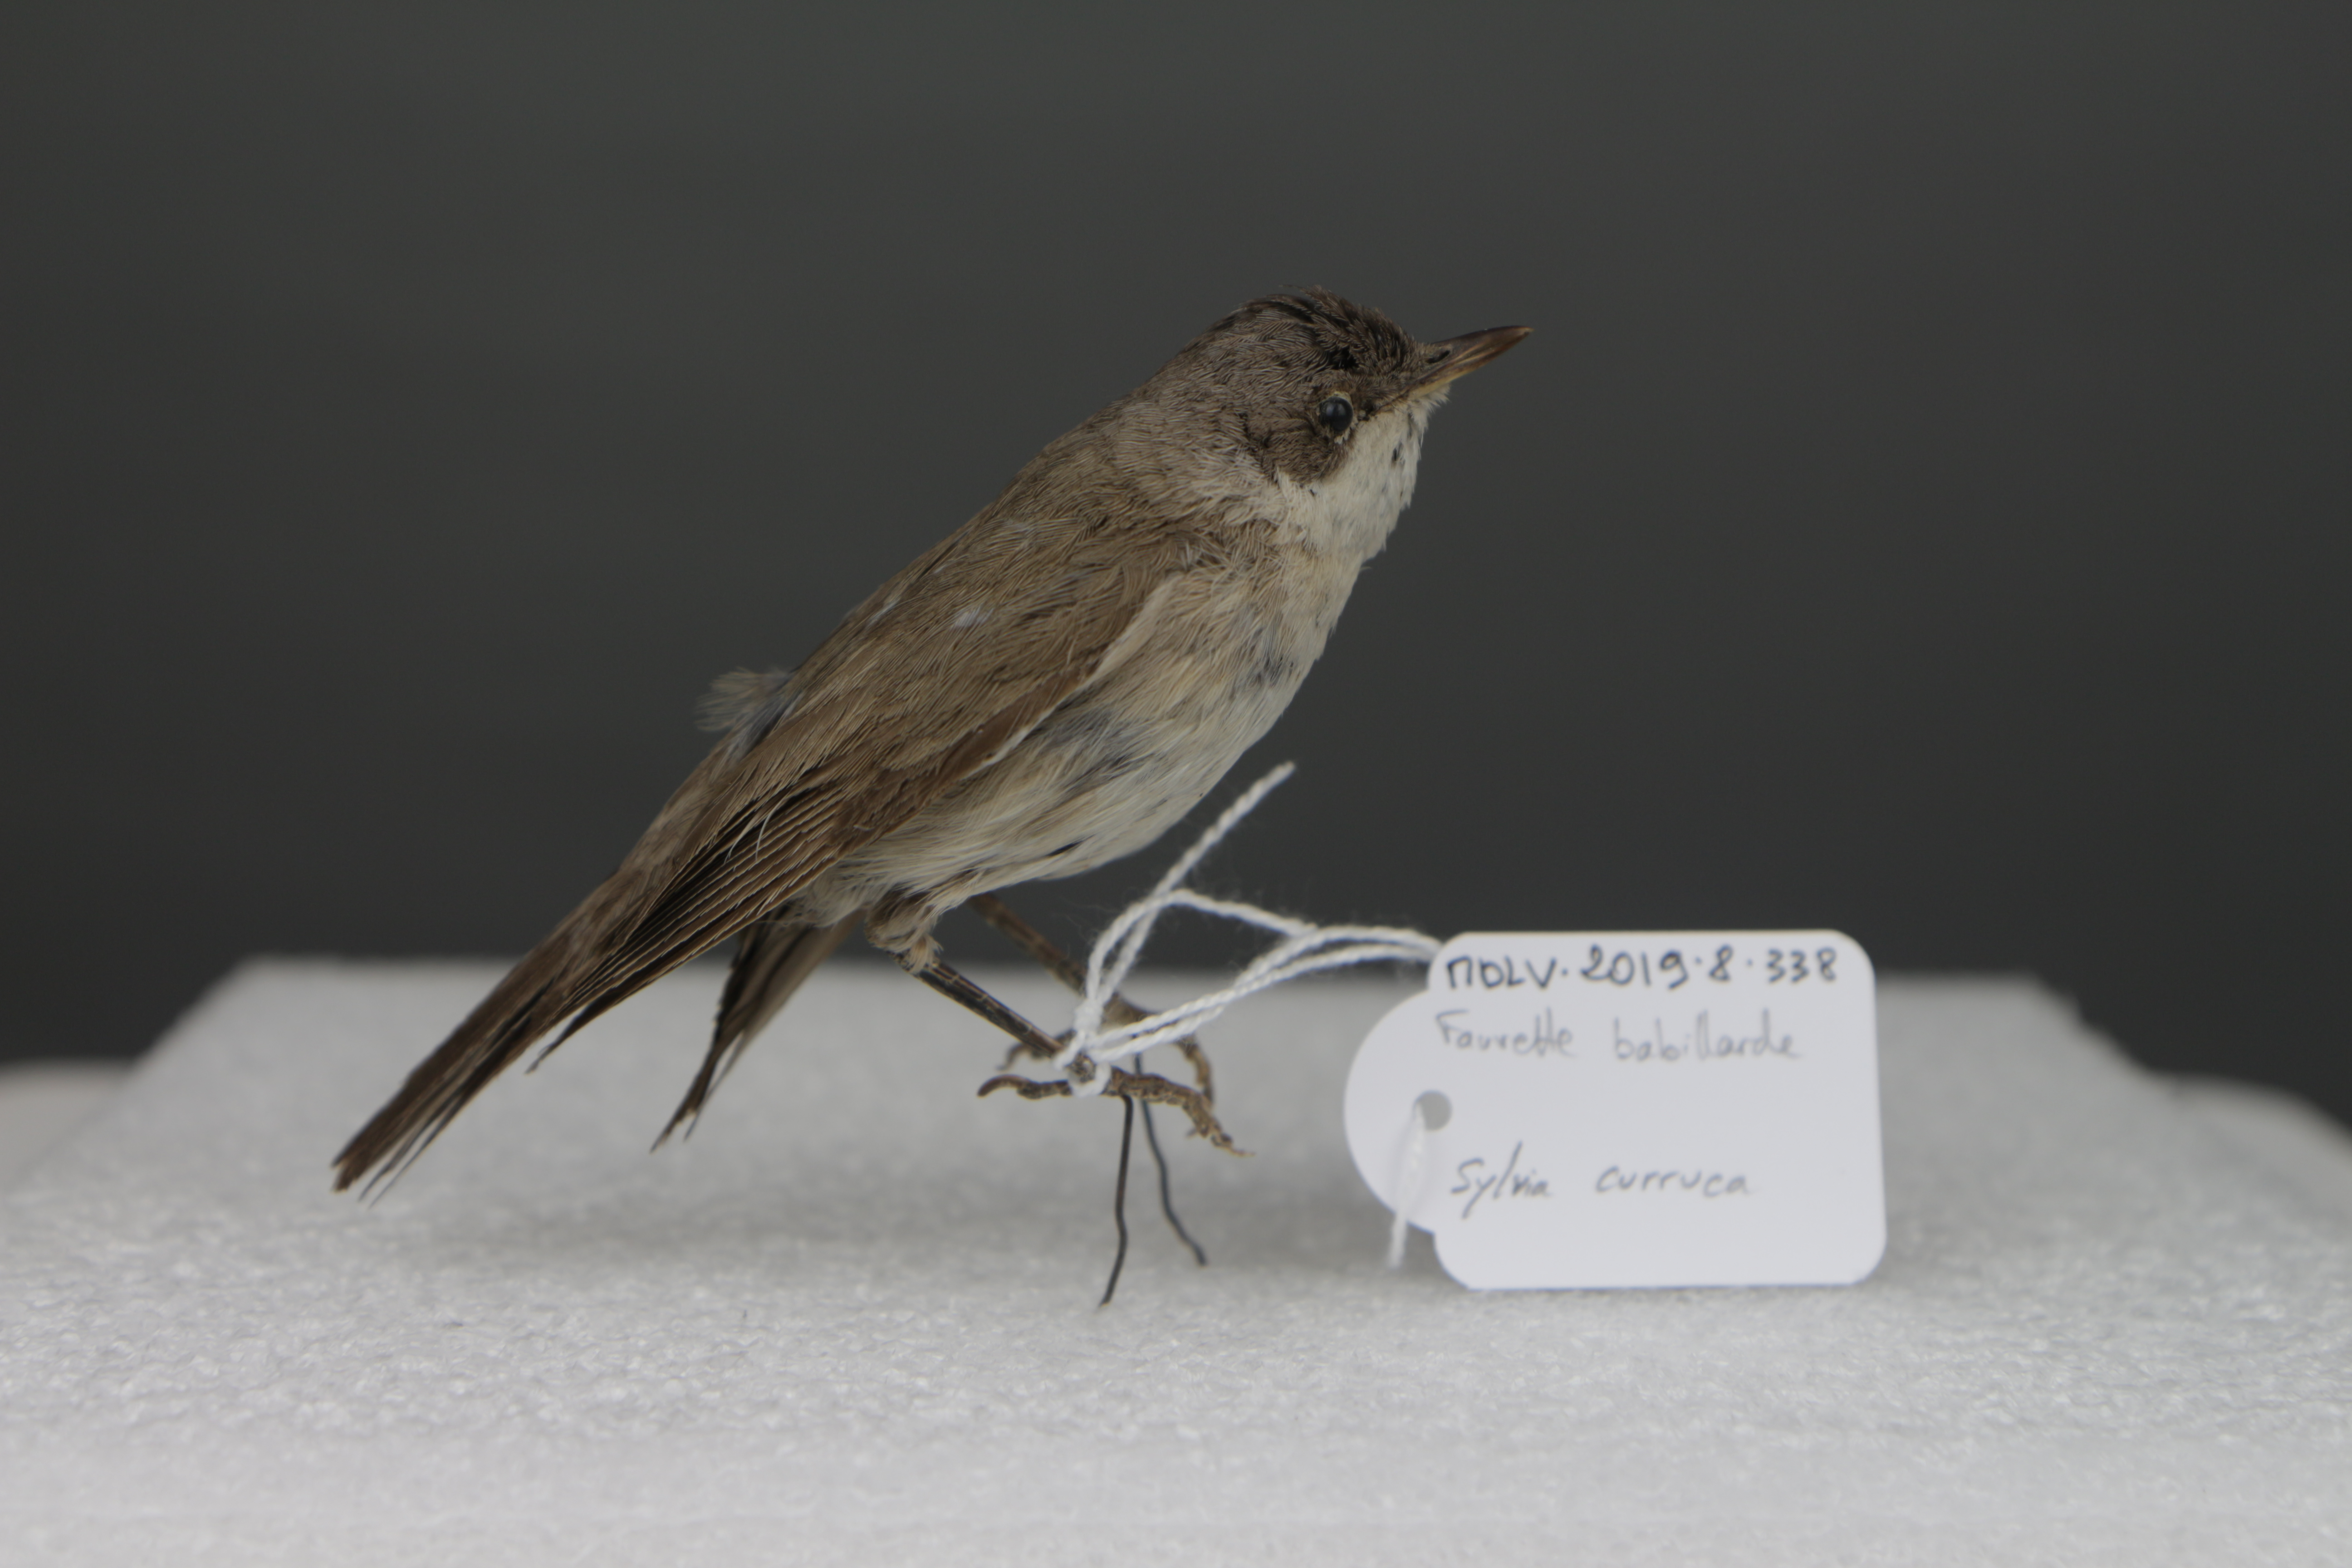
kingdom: Animalia
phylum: Chordata
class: Aves
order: Passeriformes
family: Sylviidae
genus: Sylvia
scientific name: Sylvia curruca
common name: Lesser whitethroat
